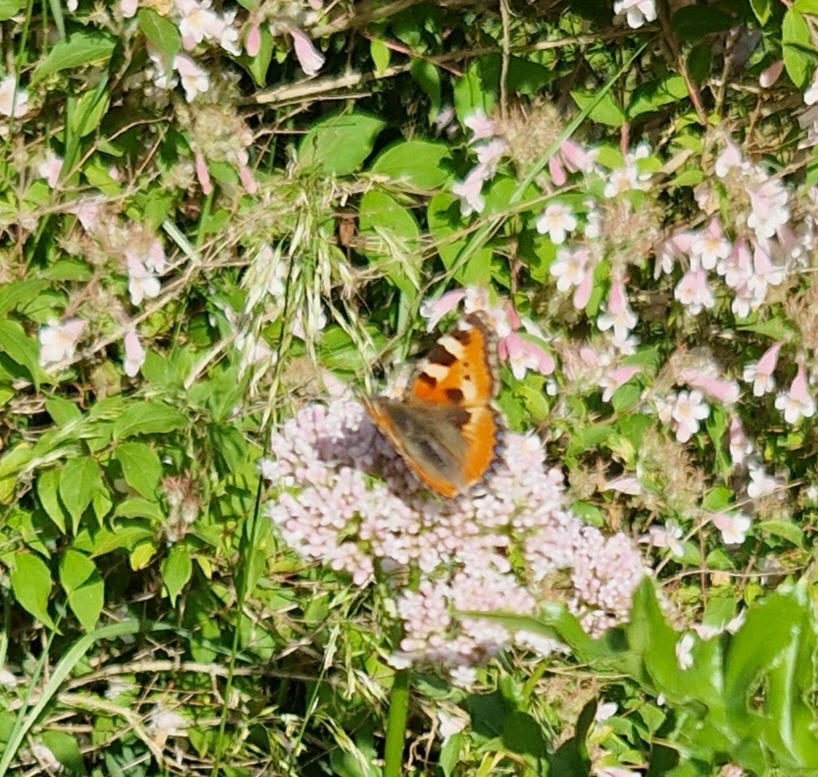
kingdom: Animalia
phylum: Arthropoda
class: Insecta
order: Lepidoptera
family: Nymphalidae
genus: Aglais
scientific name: Aglais urticae
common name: Nældens takvinge
